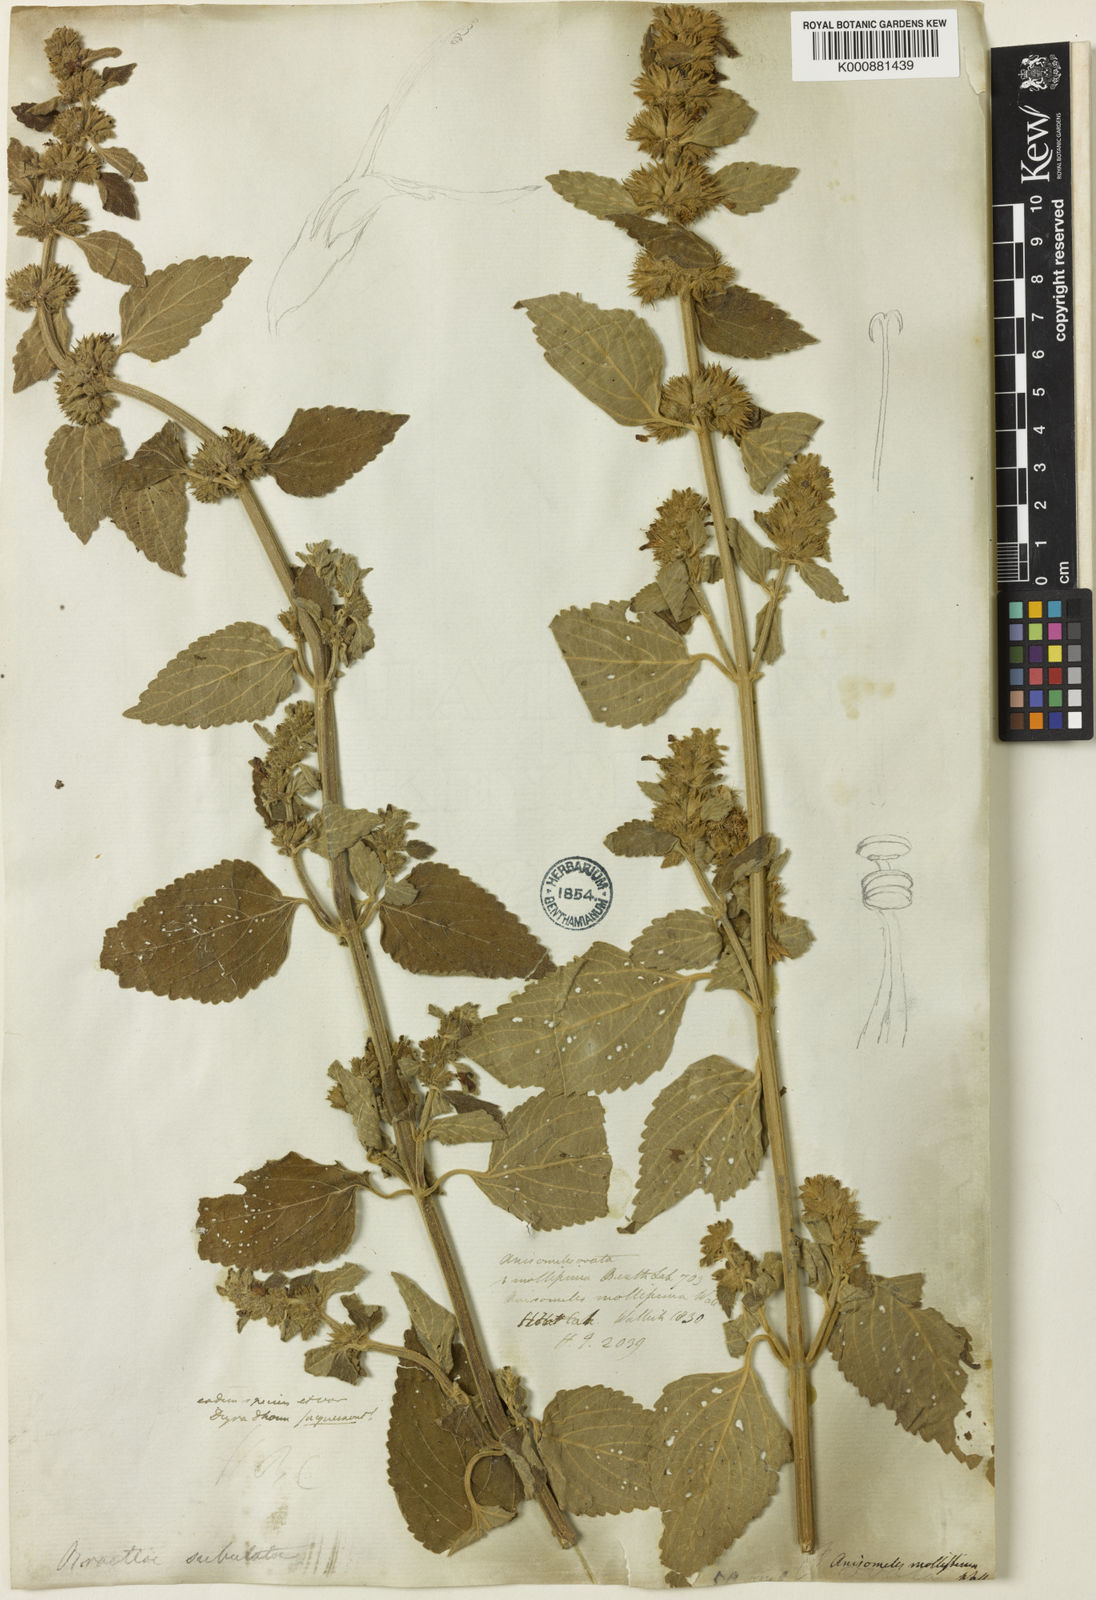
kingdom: Plantae
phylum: Tracheophyta
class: Magnoliopsida
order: Lamiales
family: Lamiaceae
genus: Anisomeles
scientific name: Anisomeles indica
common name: Catmint
